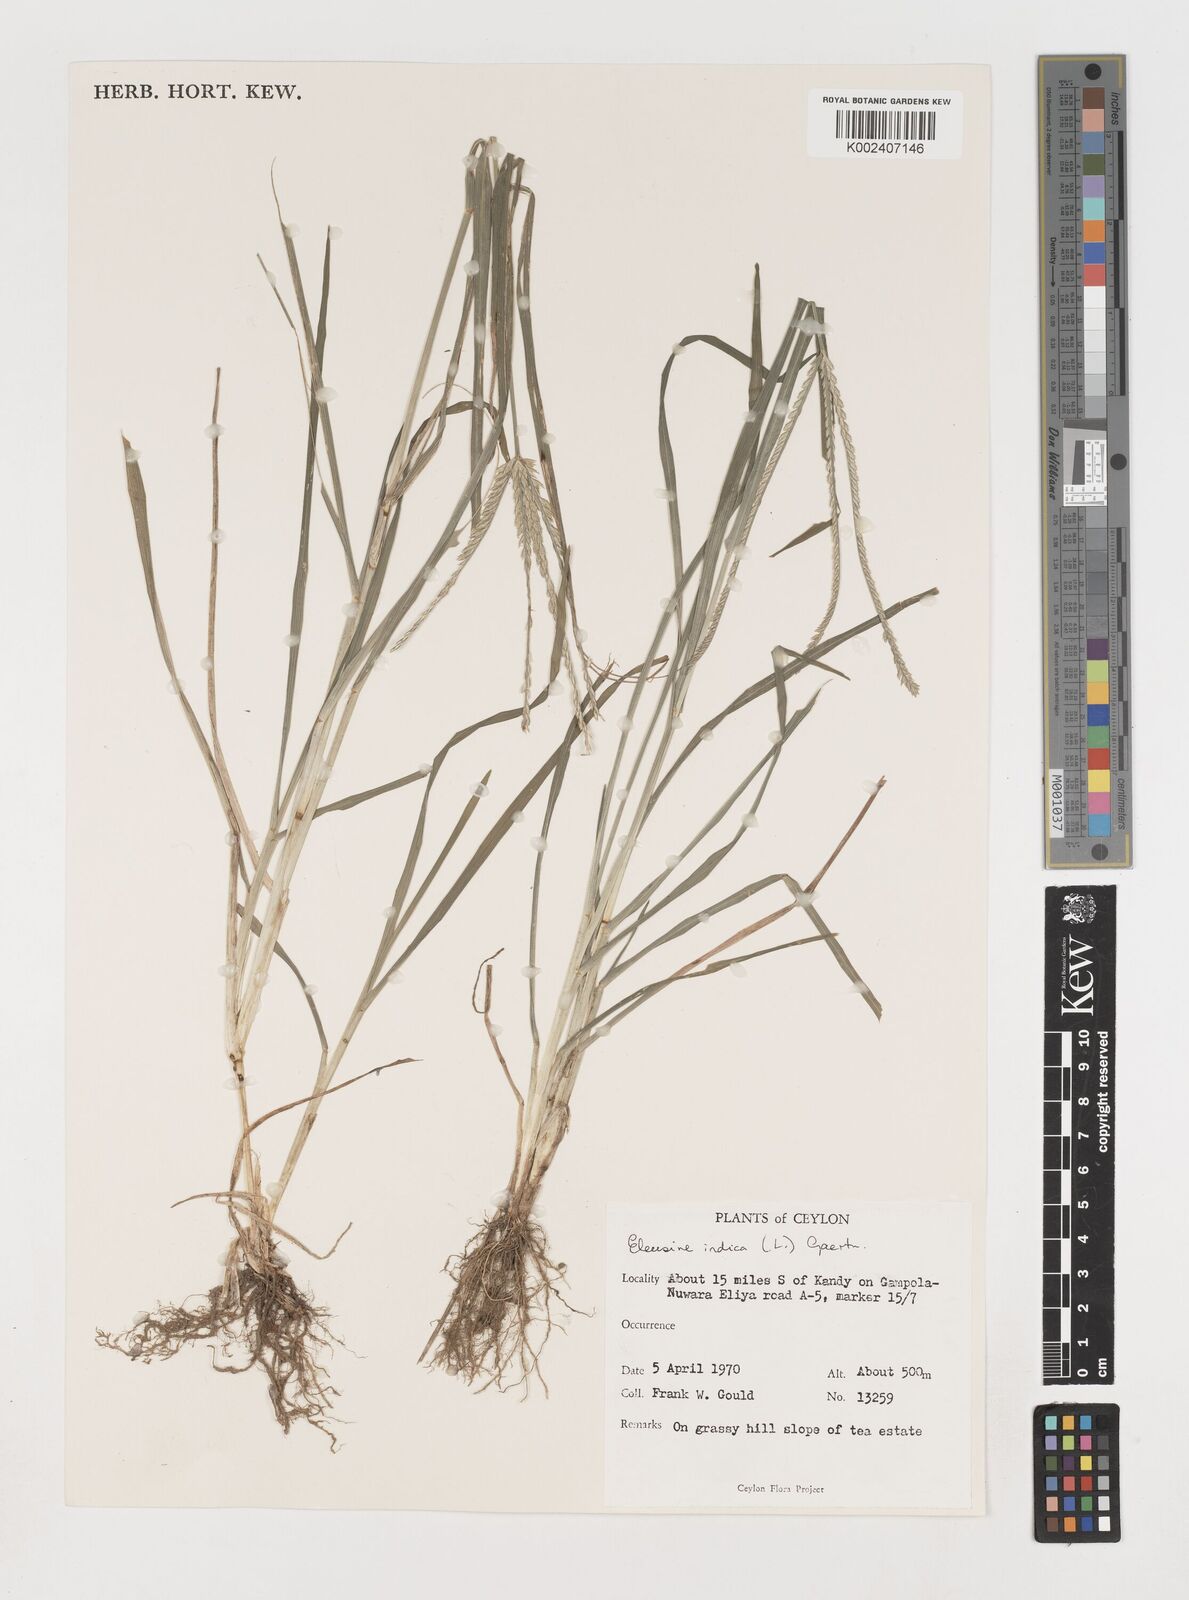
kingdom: Plantae
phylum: Tracheophyta
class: Liliopsida
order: Poales
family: Poaceae
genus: Eleusine
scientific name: Eleusine indica
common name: Yard-grass
